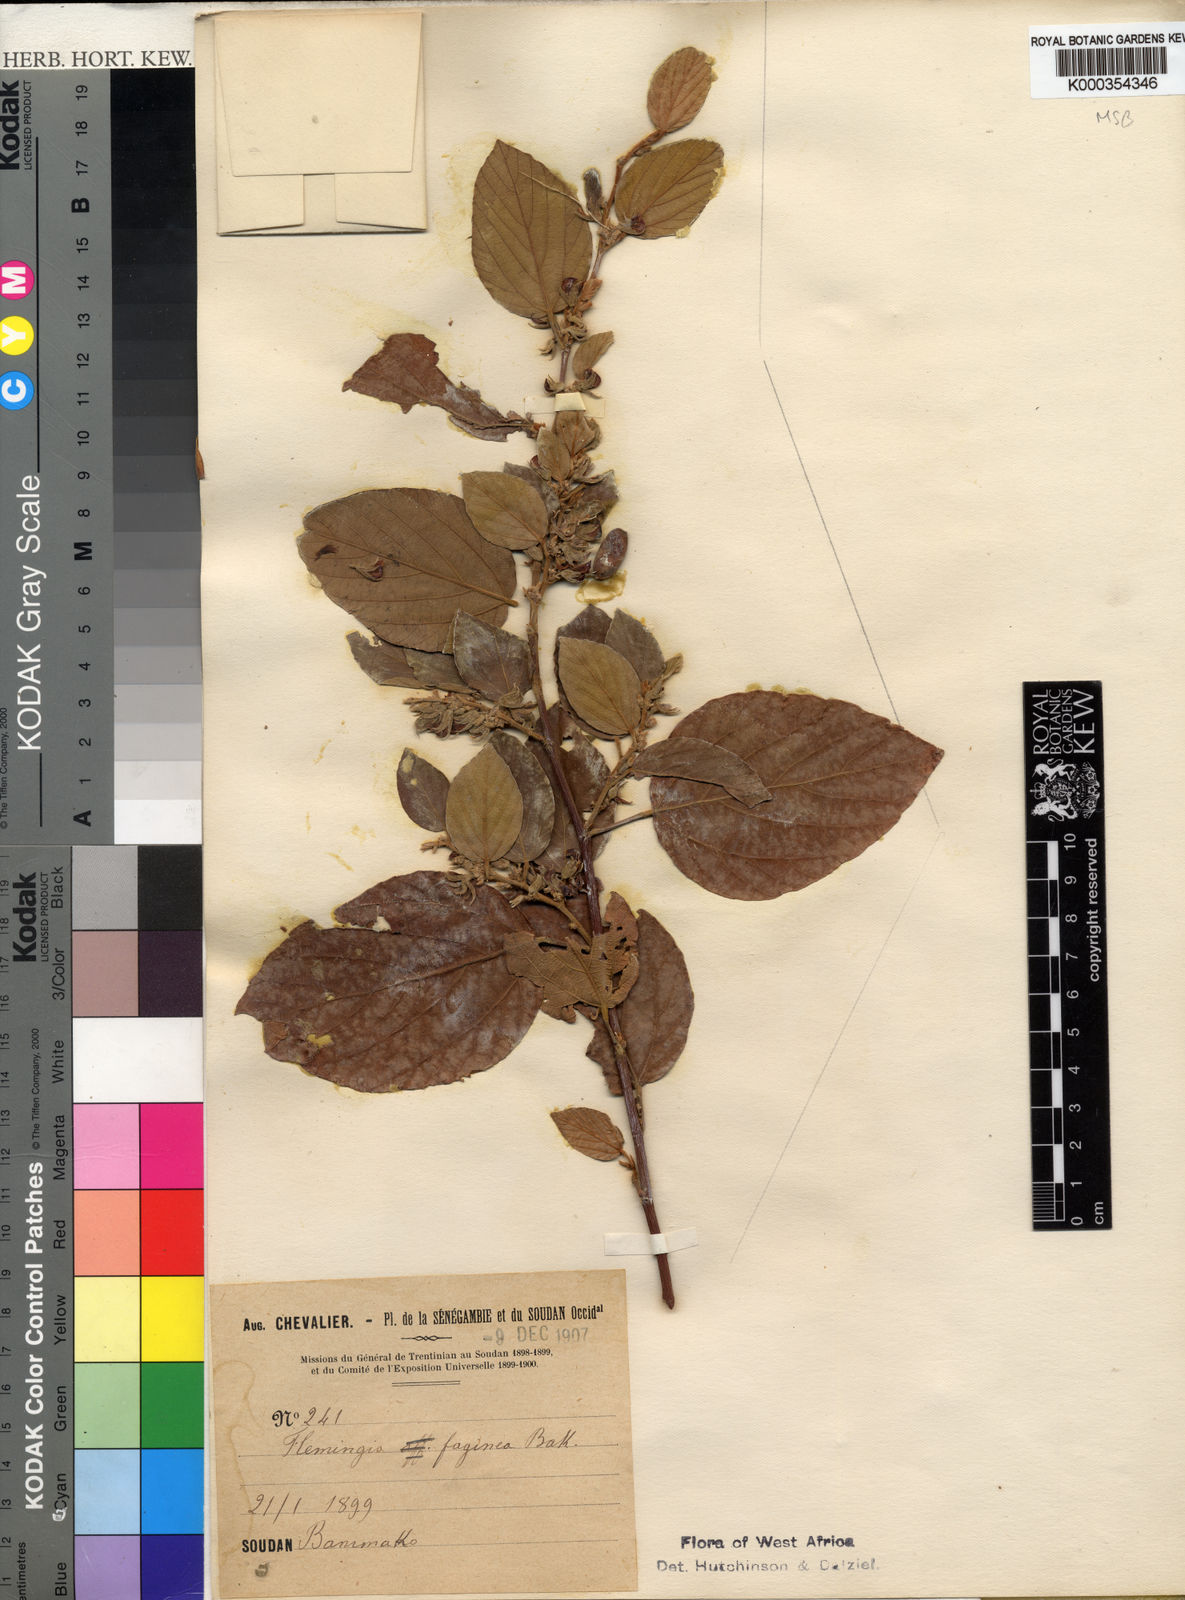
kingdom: Plantae
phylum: Tracheophyta
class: Magnoliopsida
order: Fabales
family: Fabaceae
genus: Flemingia
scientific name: Flemingia faginea
